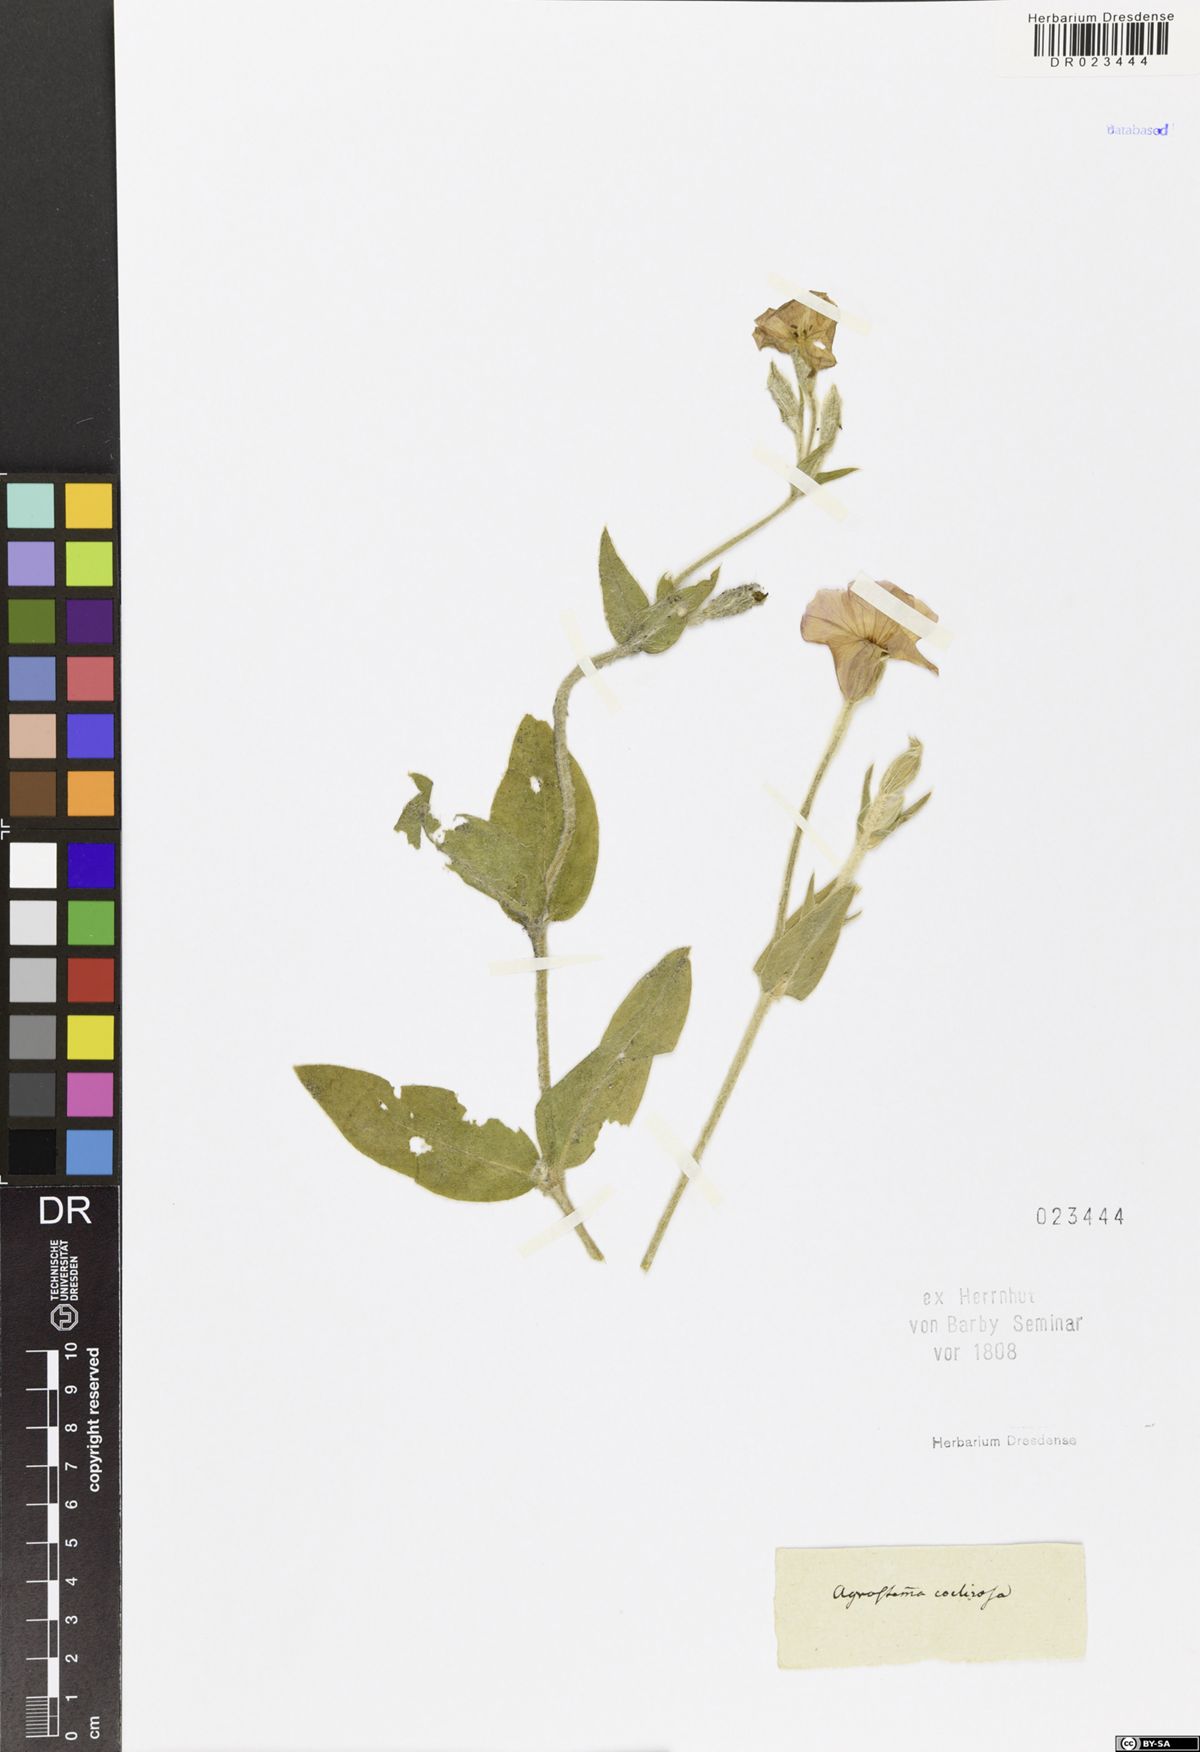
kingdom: Plantae
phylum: Tracheophyta
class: Magnoliopsida
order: Caryophyllales
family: Caryophyllaceae
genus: Eudianthe
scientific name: Eudianthe coeli-rosa
